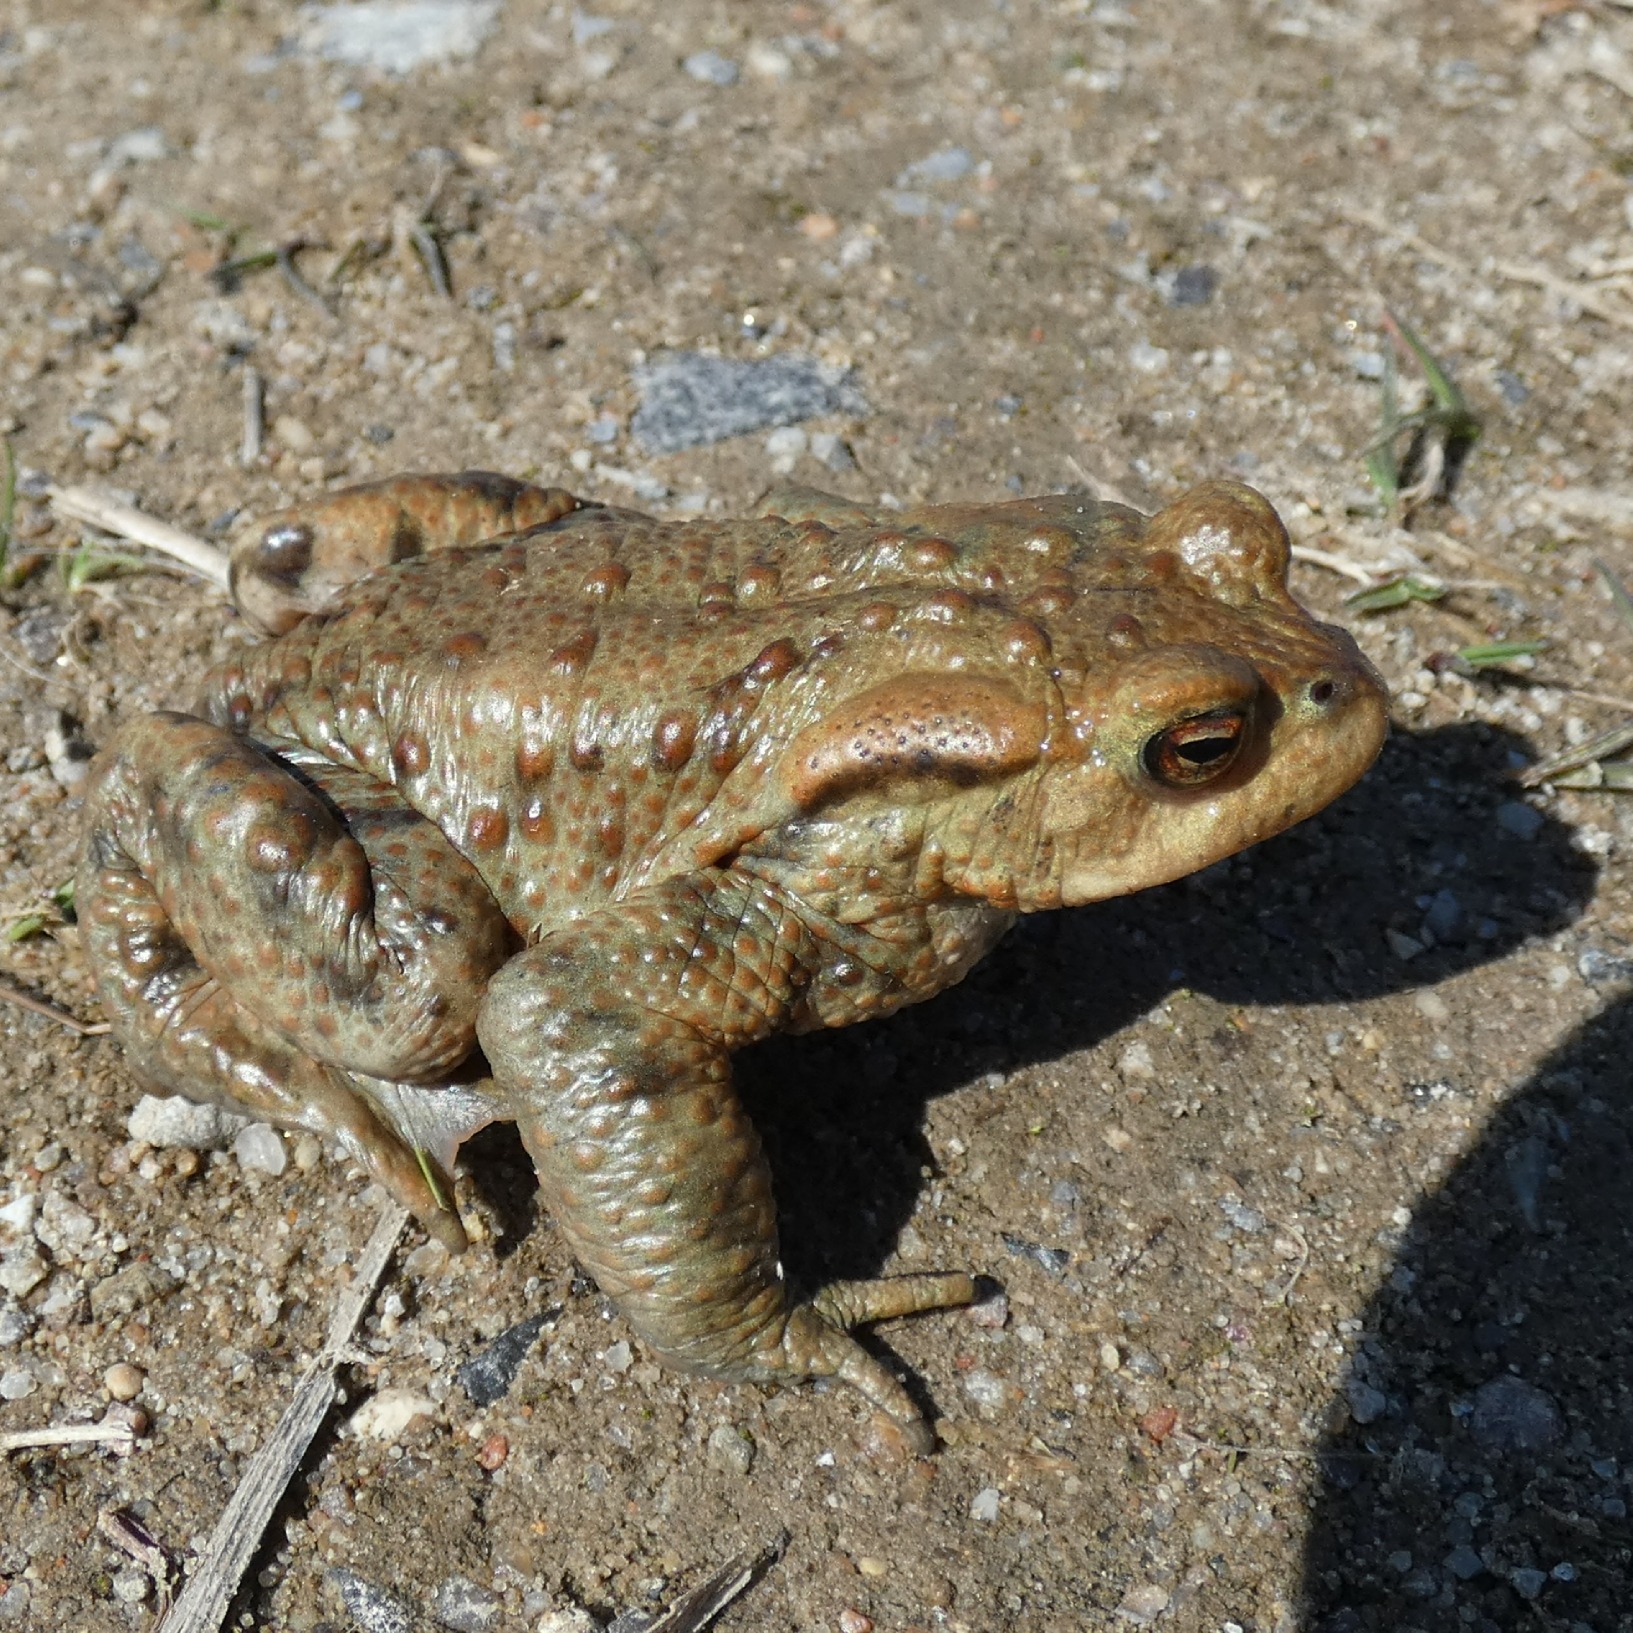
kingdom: Animalia
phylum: Chordata
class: Amphibia
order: Anura
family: Bufonidae
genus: Bufo
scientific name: Bufo bufo
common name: Skrubtudse
